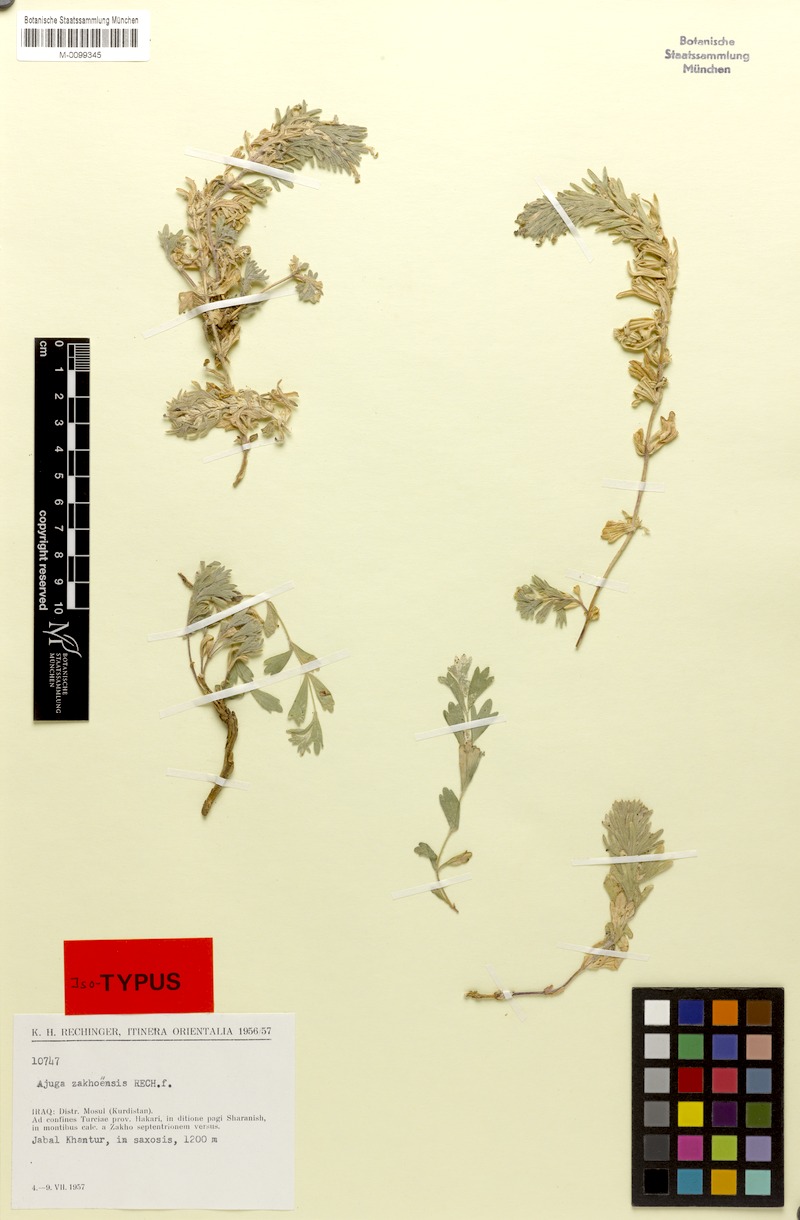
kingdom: Plantae
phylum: Tracheophyta
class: Magnoliopsida
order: Lamiales
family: Lamiaceae
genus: Ajuga
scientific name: Ajuga zakhoensis
